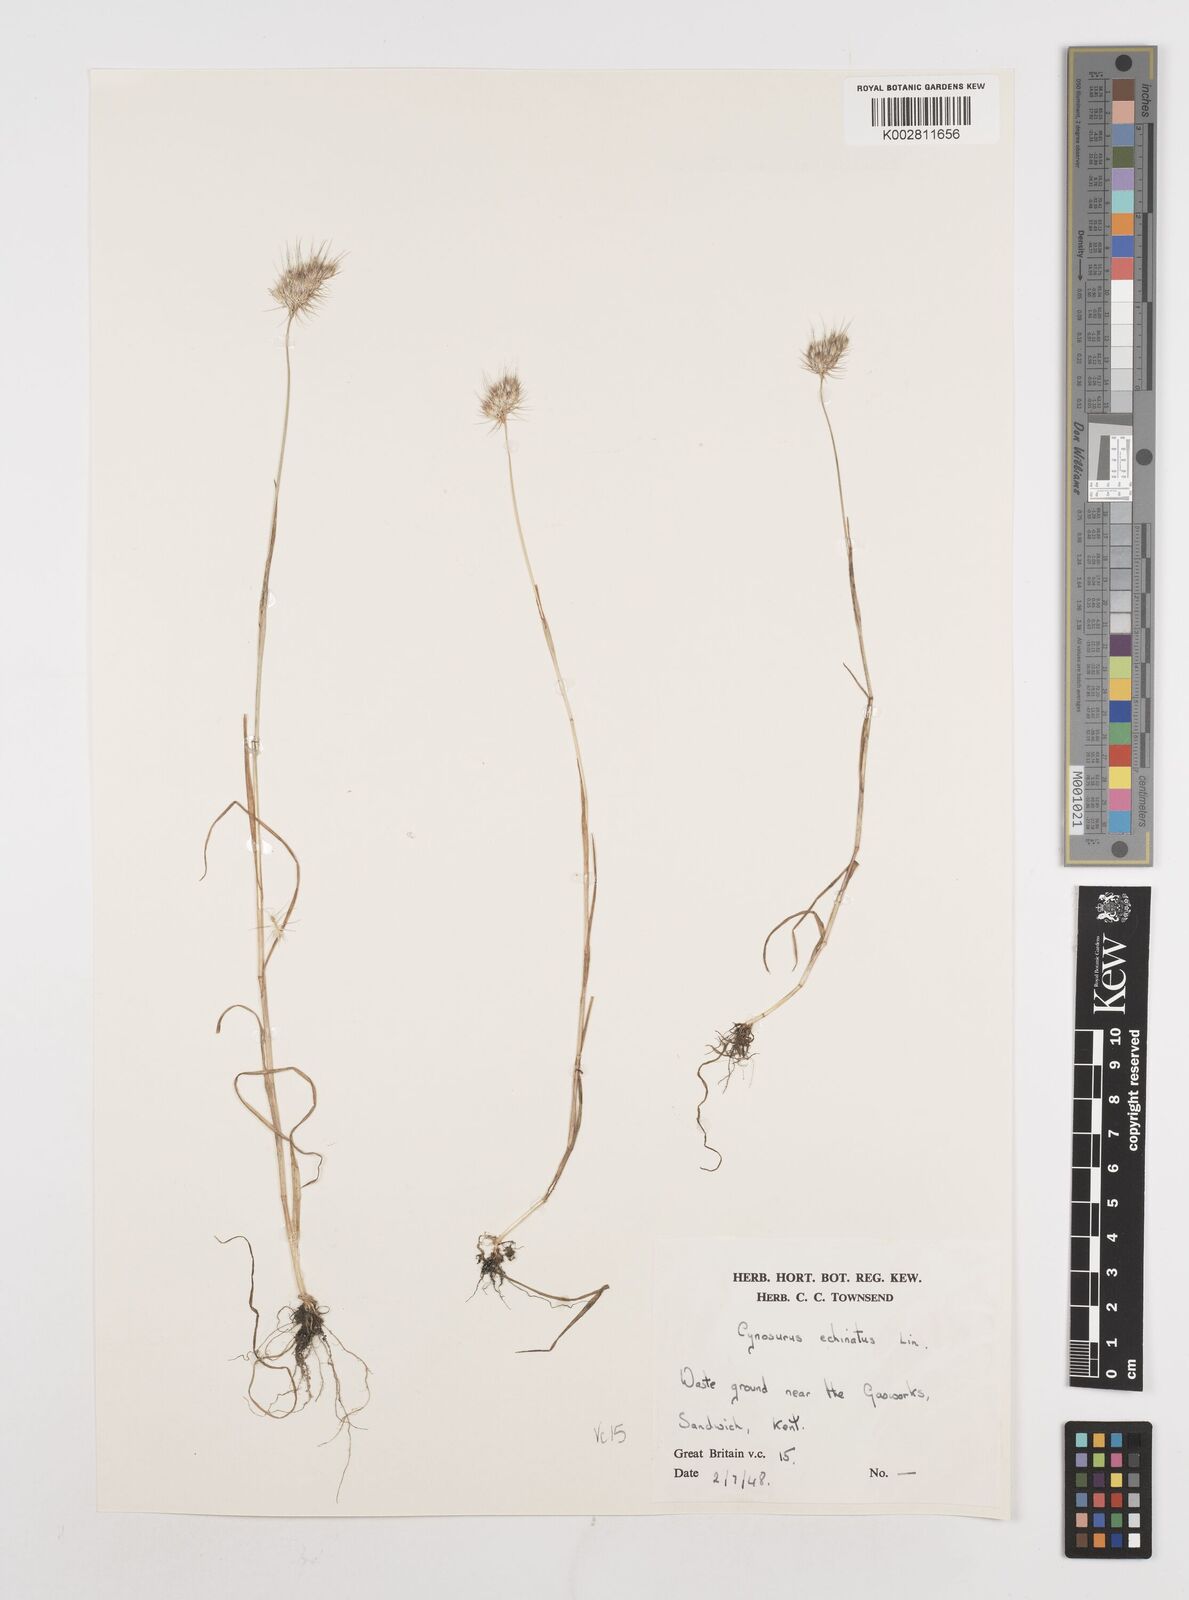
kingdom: Plantae
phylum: Tracheophyta
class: Liliopsida
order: Poales
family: Poaceae
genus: Cynosurus
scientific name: Cynosurus echinatus
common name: Rough dog's-tail
